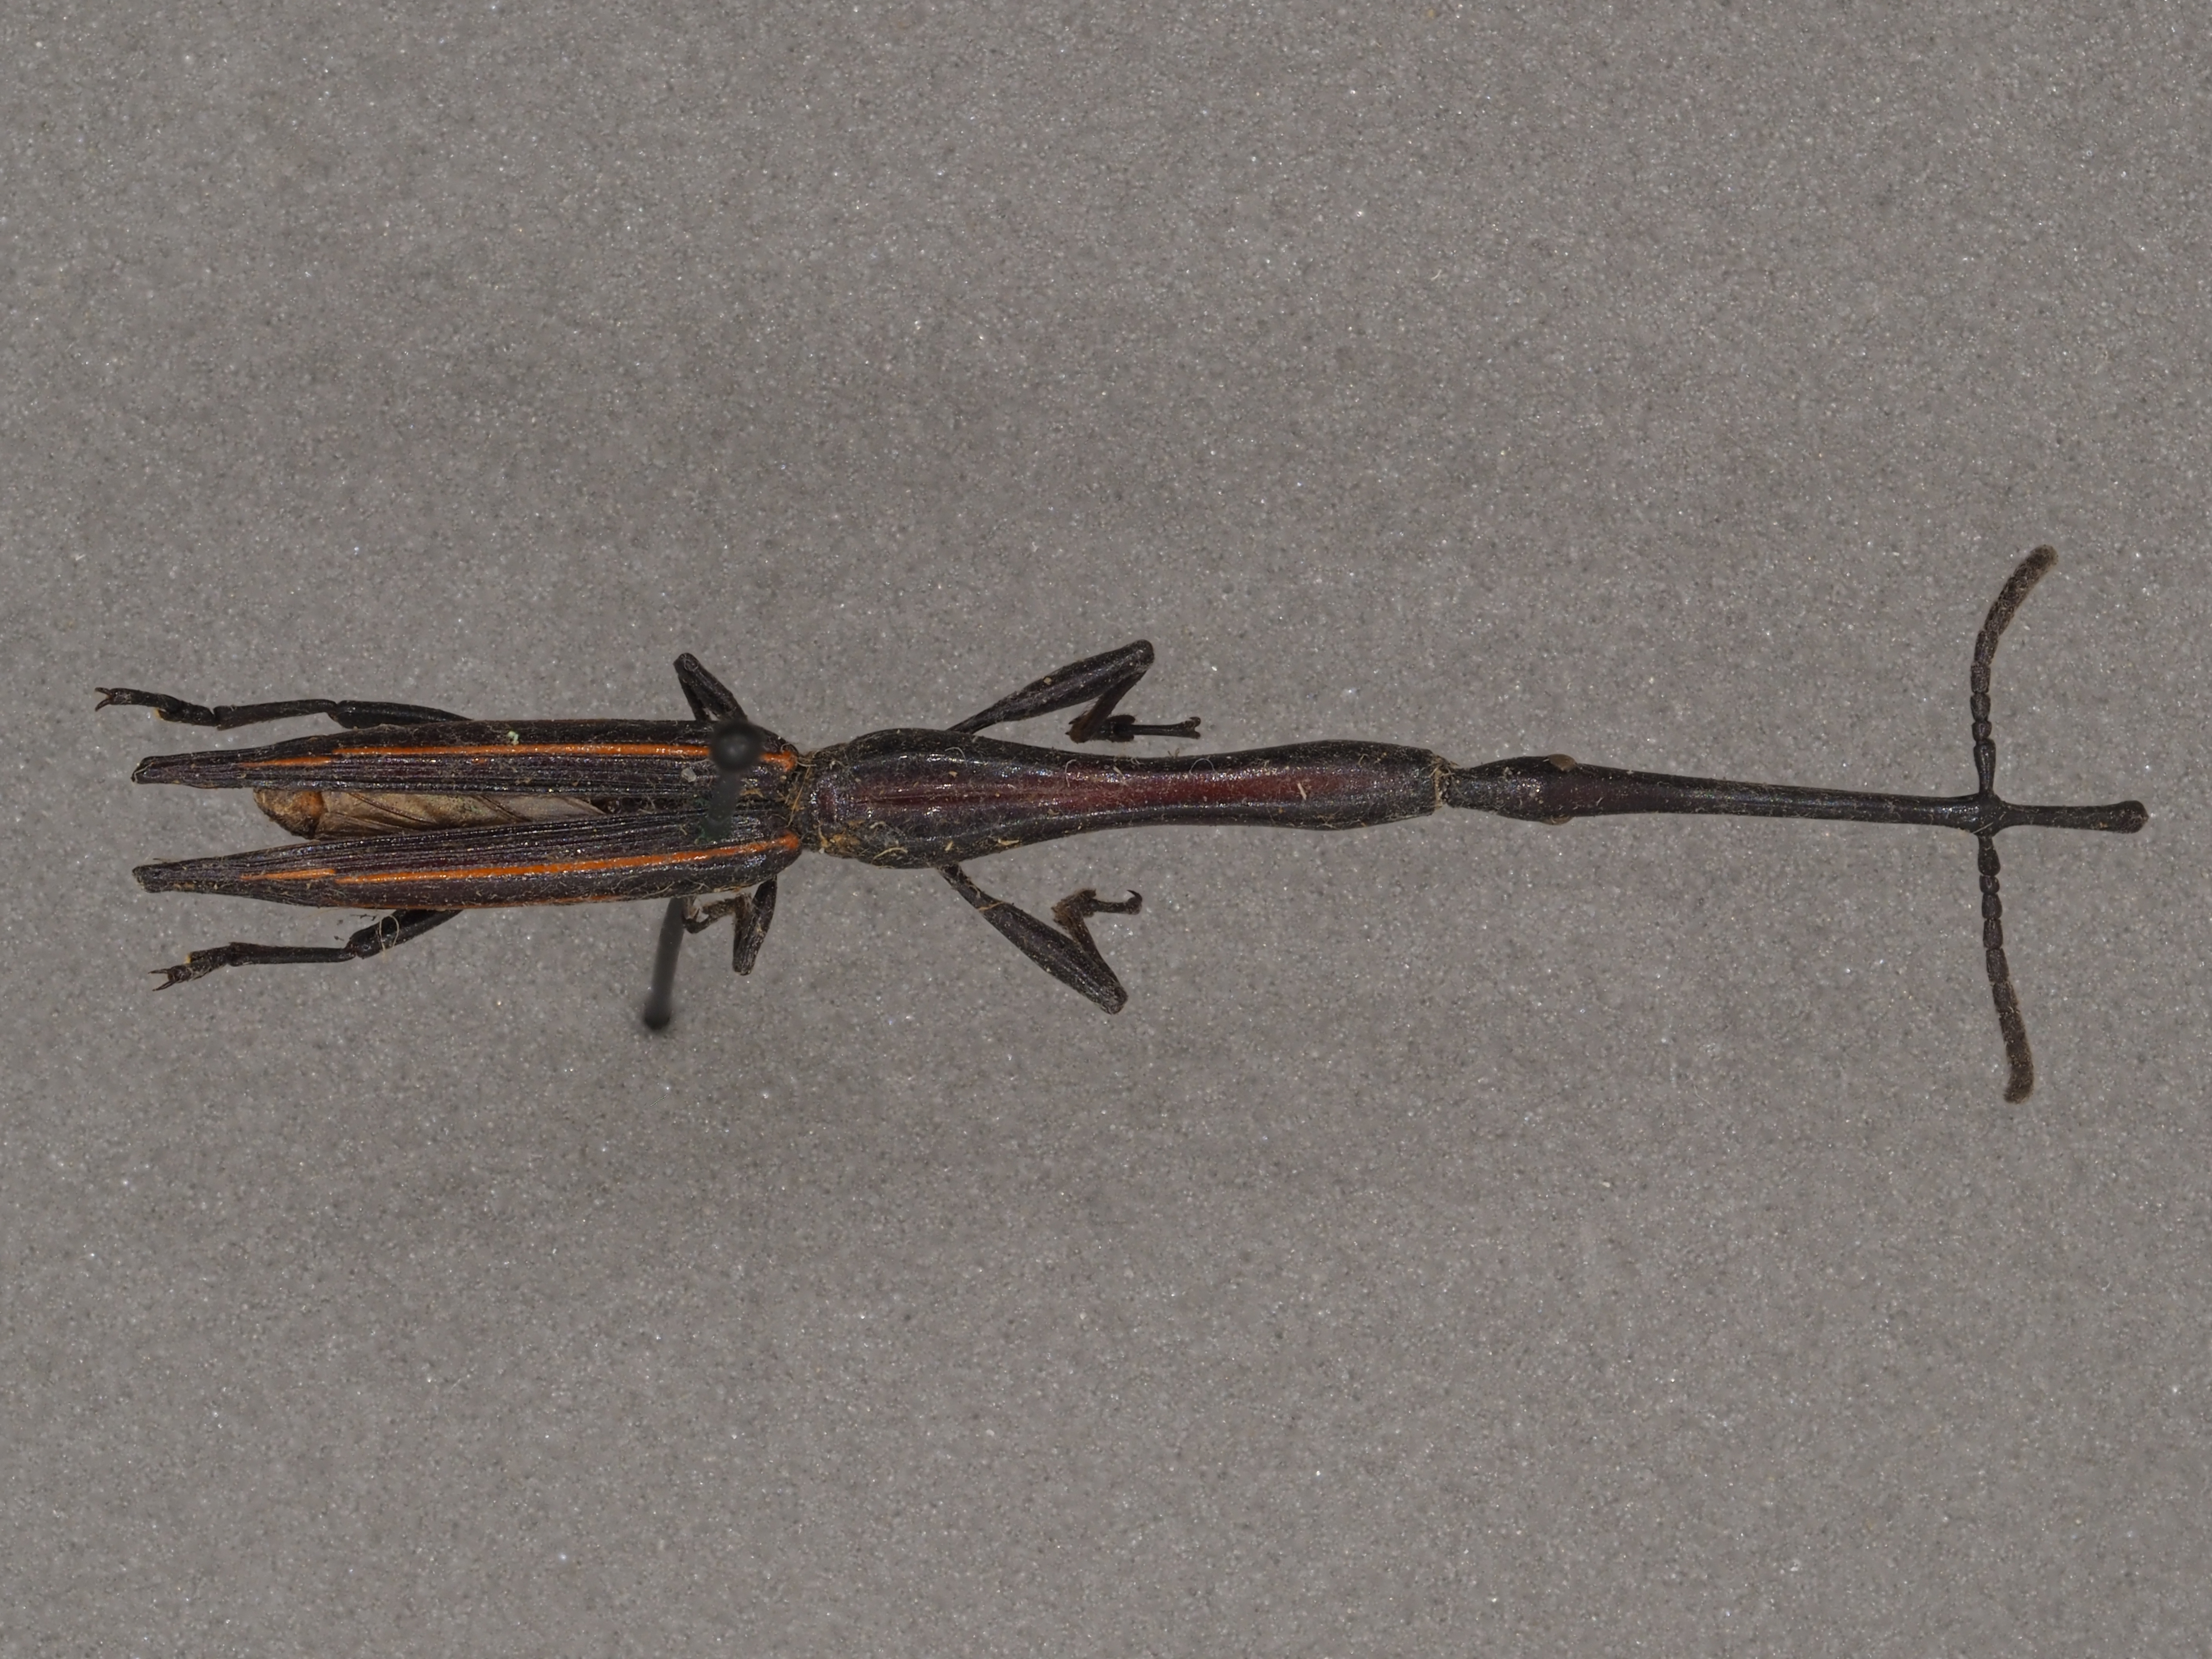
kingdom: Animalia
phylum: Arthropoda
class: Insecta
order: Coleoptera
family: Brentidae
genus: Brentus
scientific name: Brentus anchorago
